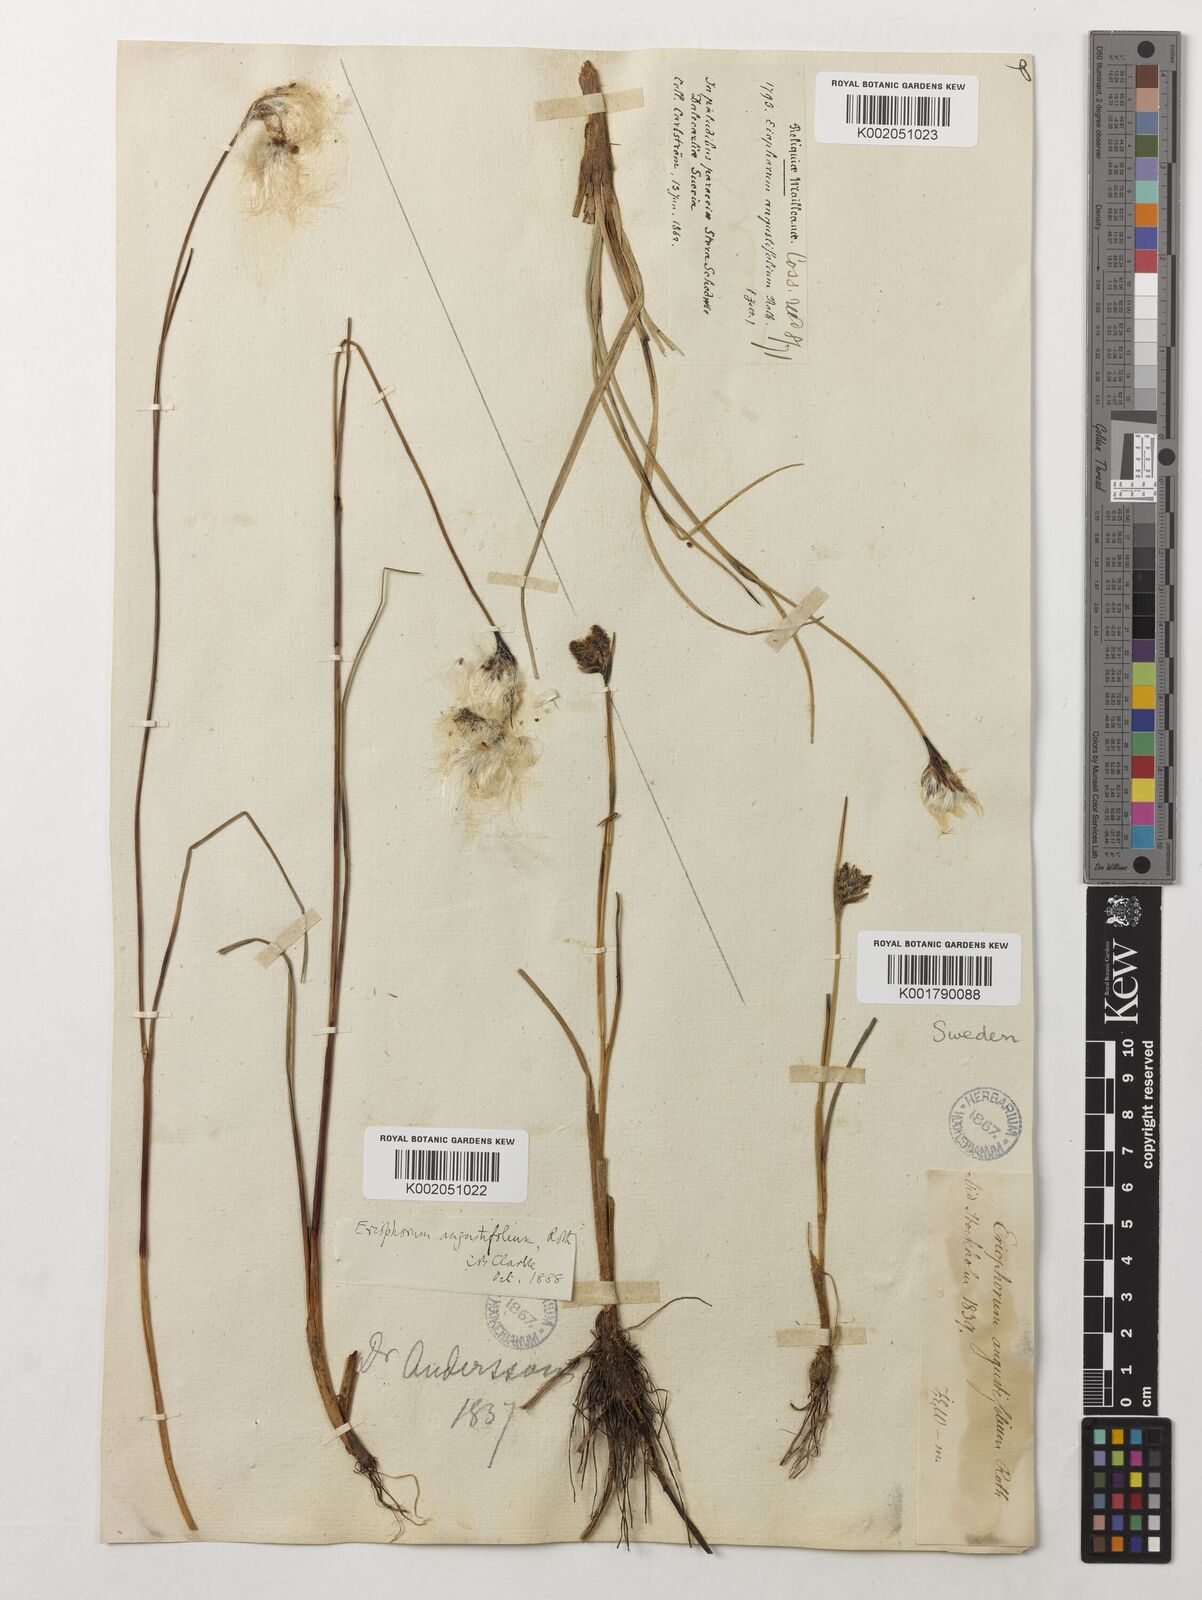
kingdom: Plantae
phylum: Tracheophyta
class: Liliopsida
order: Poales
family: Cyperaceae
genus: Eriophorum
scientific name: Eriophorum angustifolium
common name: Common cottongrass
